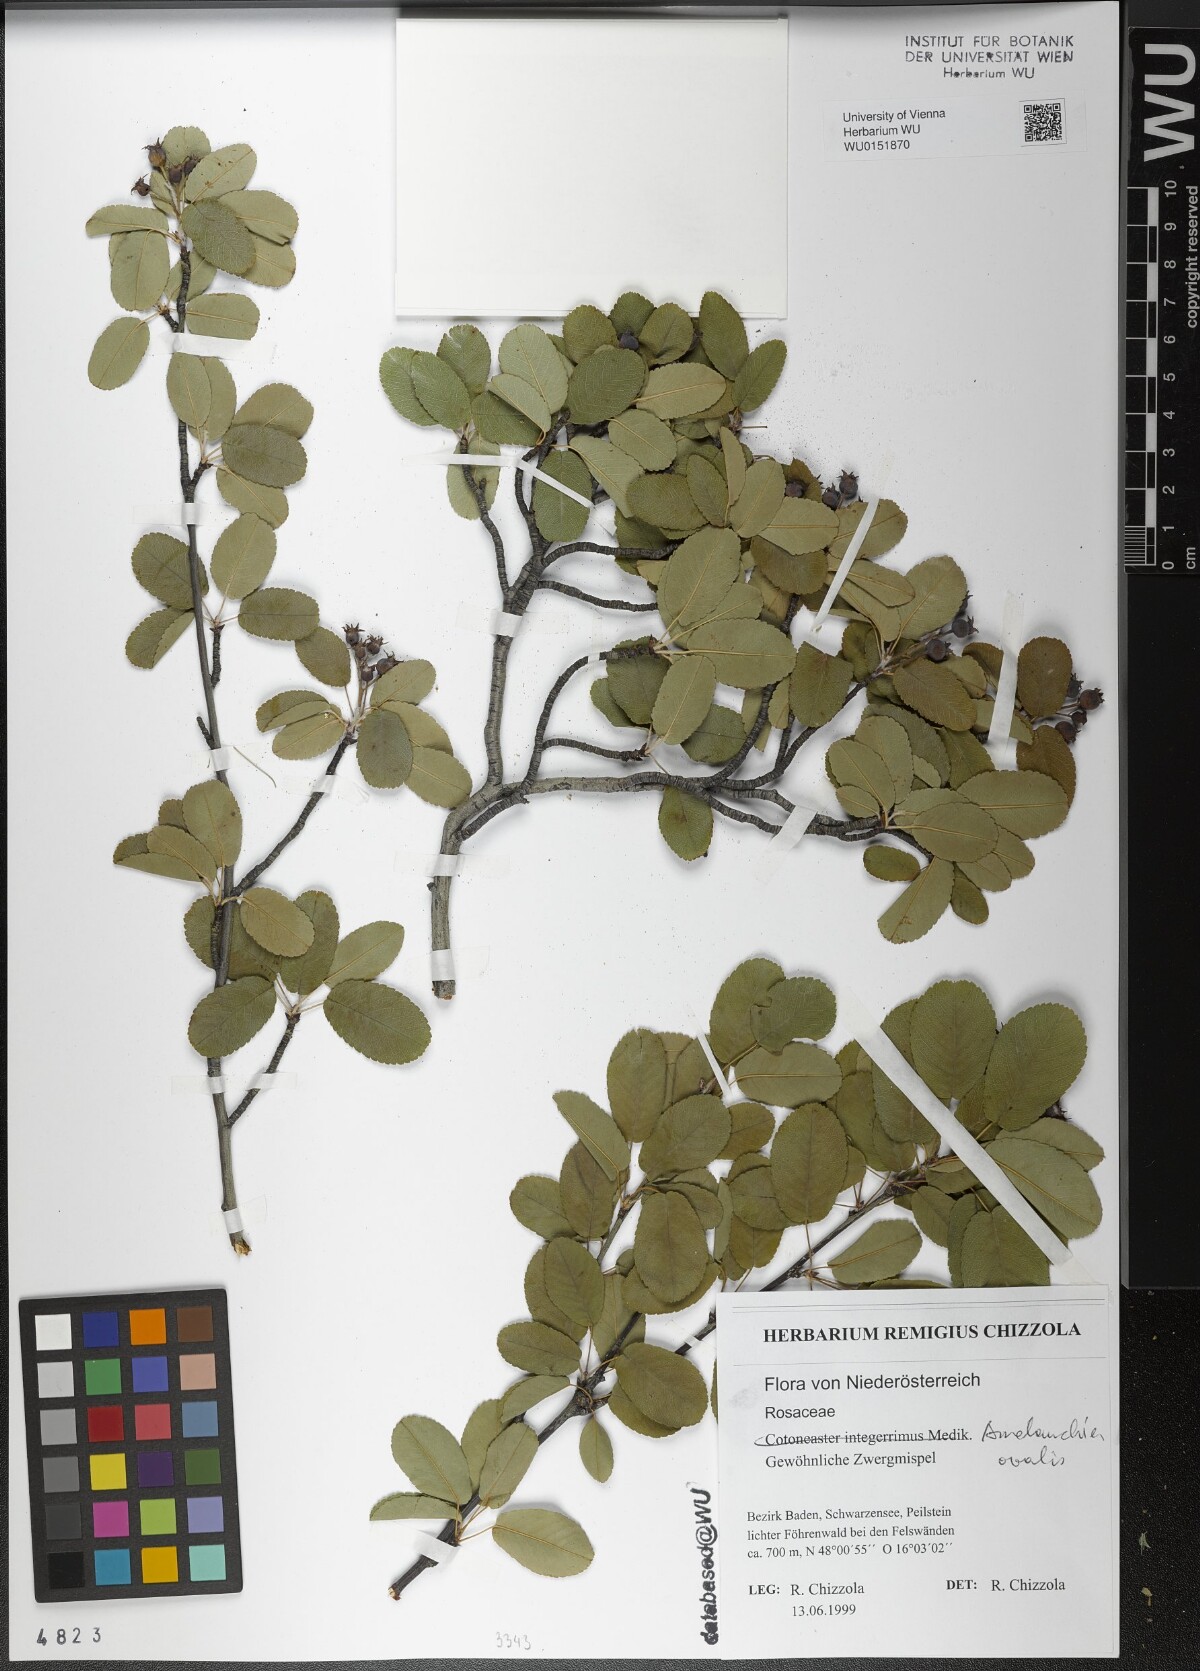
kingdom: Plantae
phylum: Tracheophyta
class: Magnoliopsida
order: Rosales
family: Rosaceae
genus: Amelanchier
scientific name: Amelanchier ovalis
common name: Serviceberry
